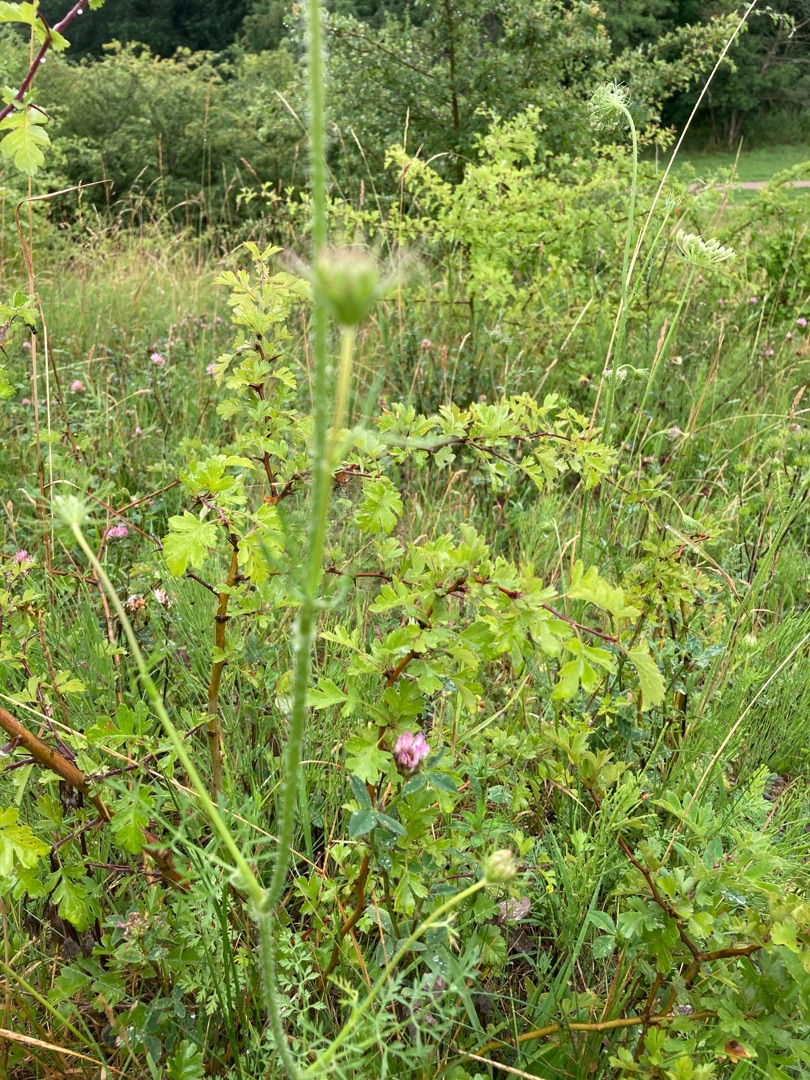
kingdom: Plantae
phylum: Tracheophyta
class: Magnoliopsida
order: Apiales
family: Apiaceae
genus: Daucus
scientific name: Daucus carota
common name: Gulerod
